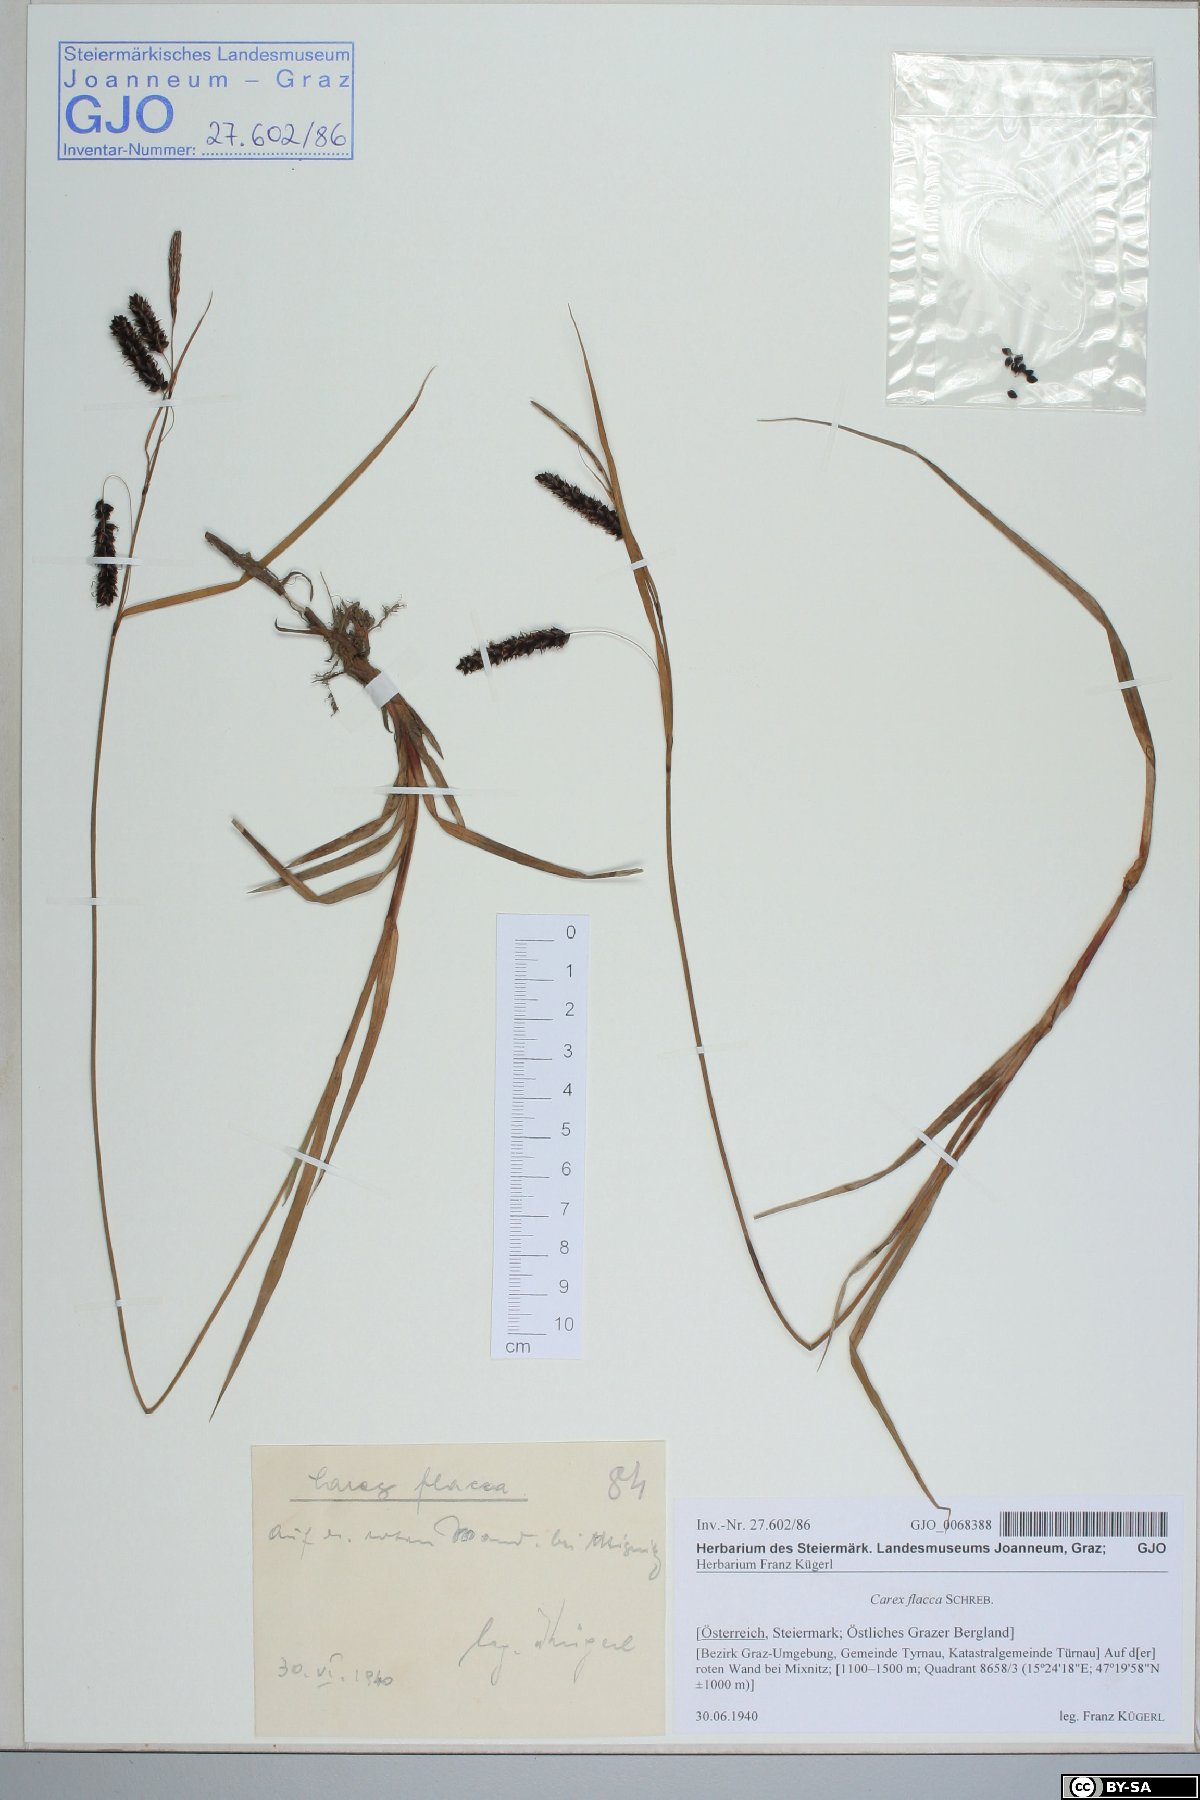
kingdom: Plantae
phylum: Tracheophyta
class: Liliopsida
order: Poales
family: Cyperaceae
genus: Carex
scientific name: Carex flacca
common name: Glaucous sedge
